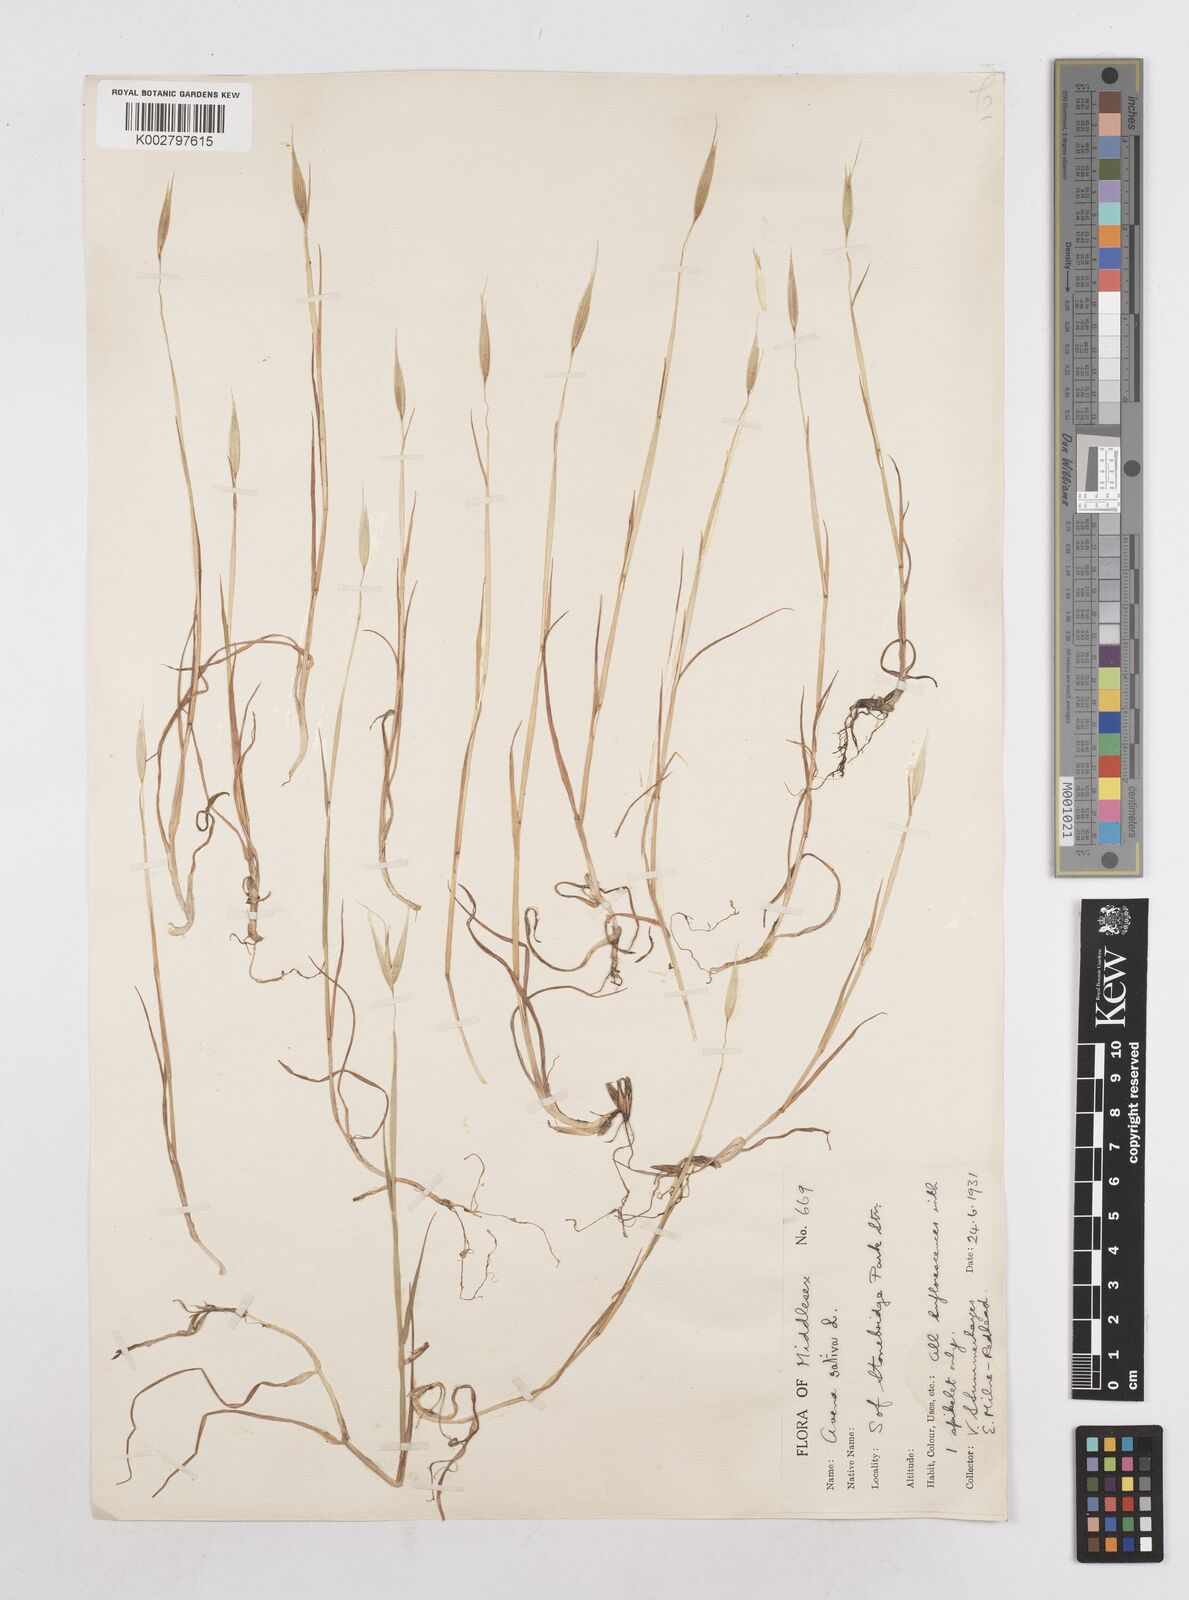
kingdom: Plantae
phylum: Tracheophyta
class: Liliopsida
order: Poales
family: Poaceae
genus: Avena
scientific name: Avena sativa
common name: Oat
